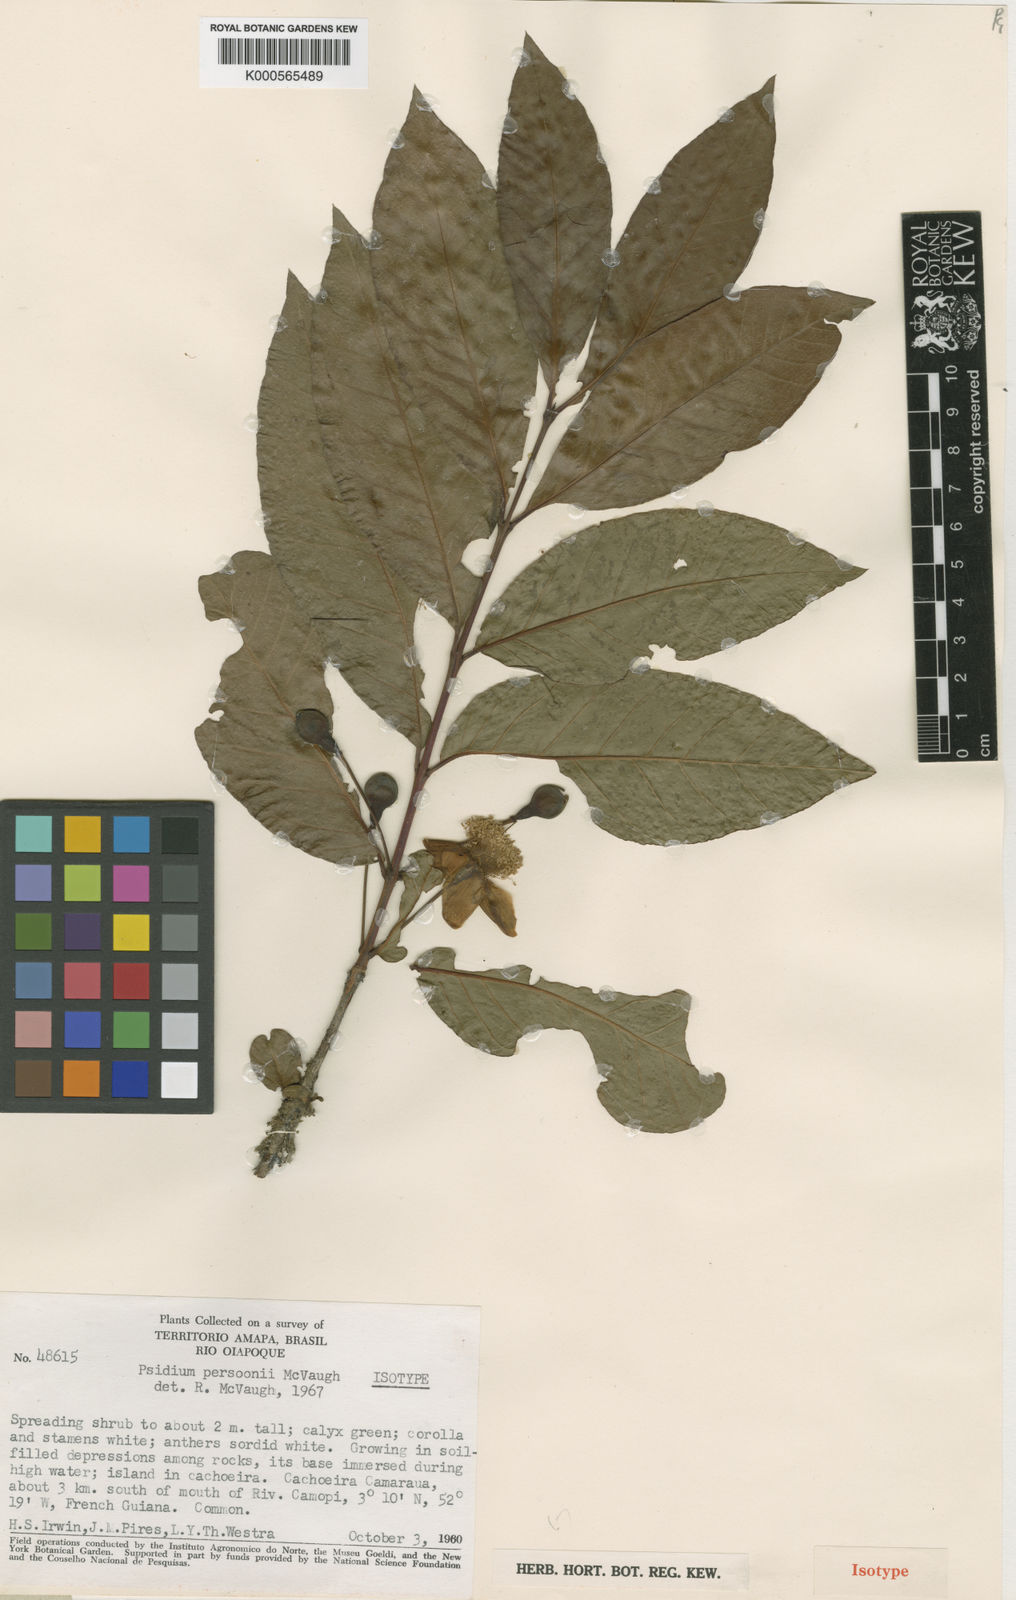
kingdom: Plantae
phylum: Tracheophyta
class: Magnoliopsida
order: Myrtales
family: Myrtaceae
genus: Psidium
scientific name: Psidium acutangulum
